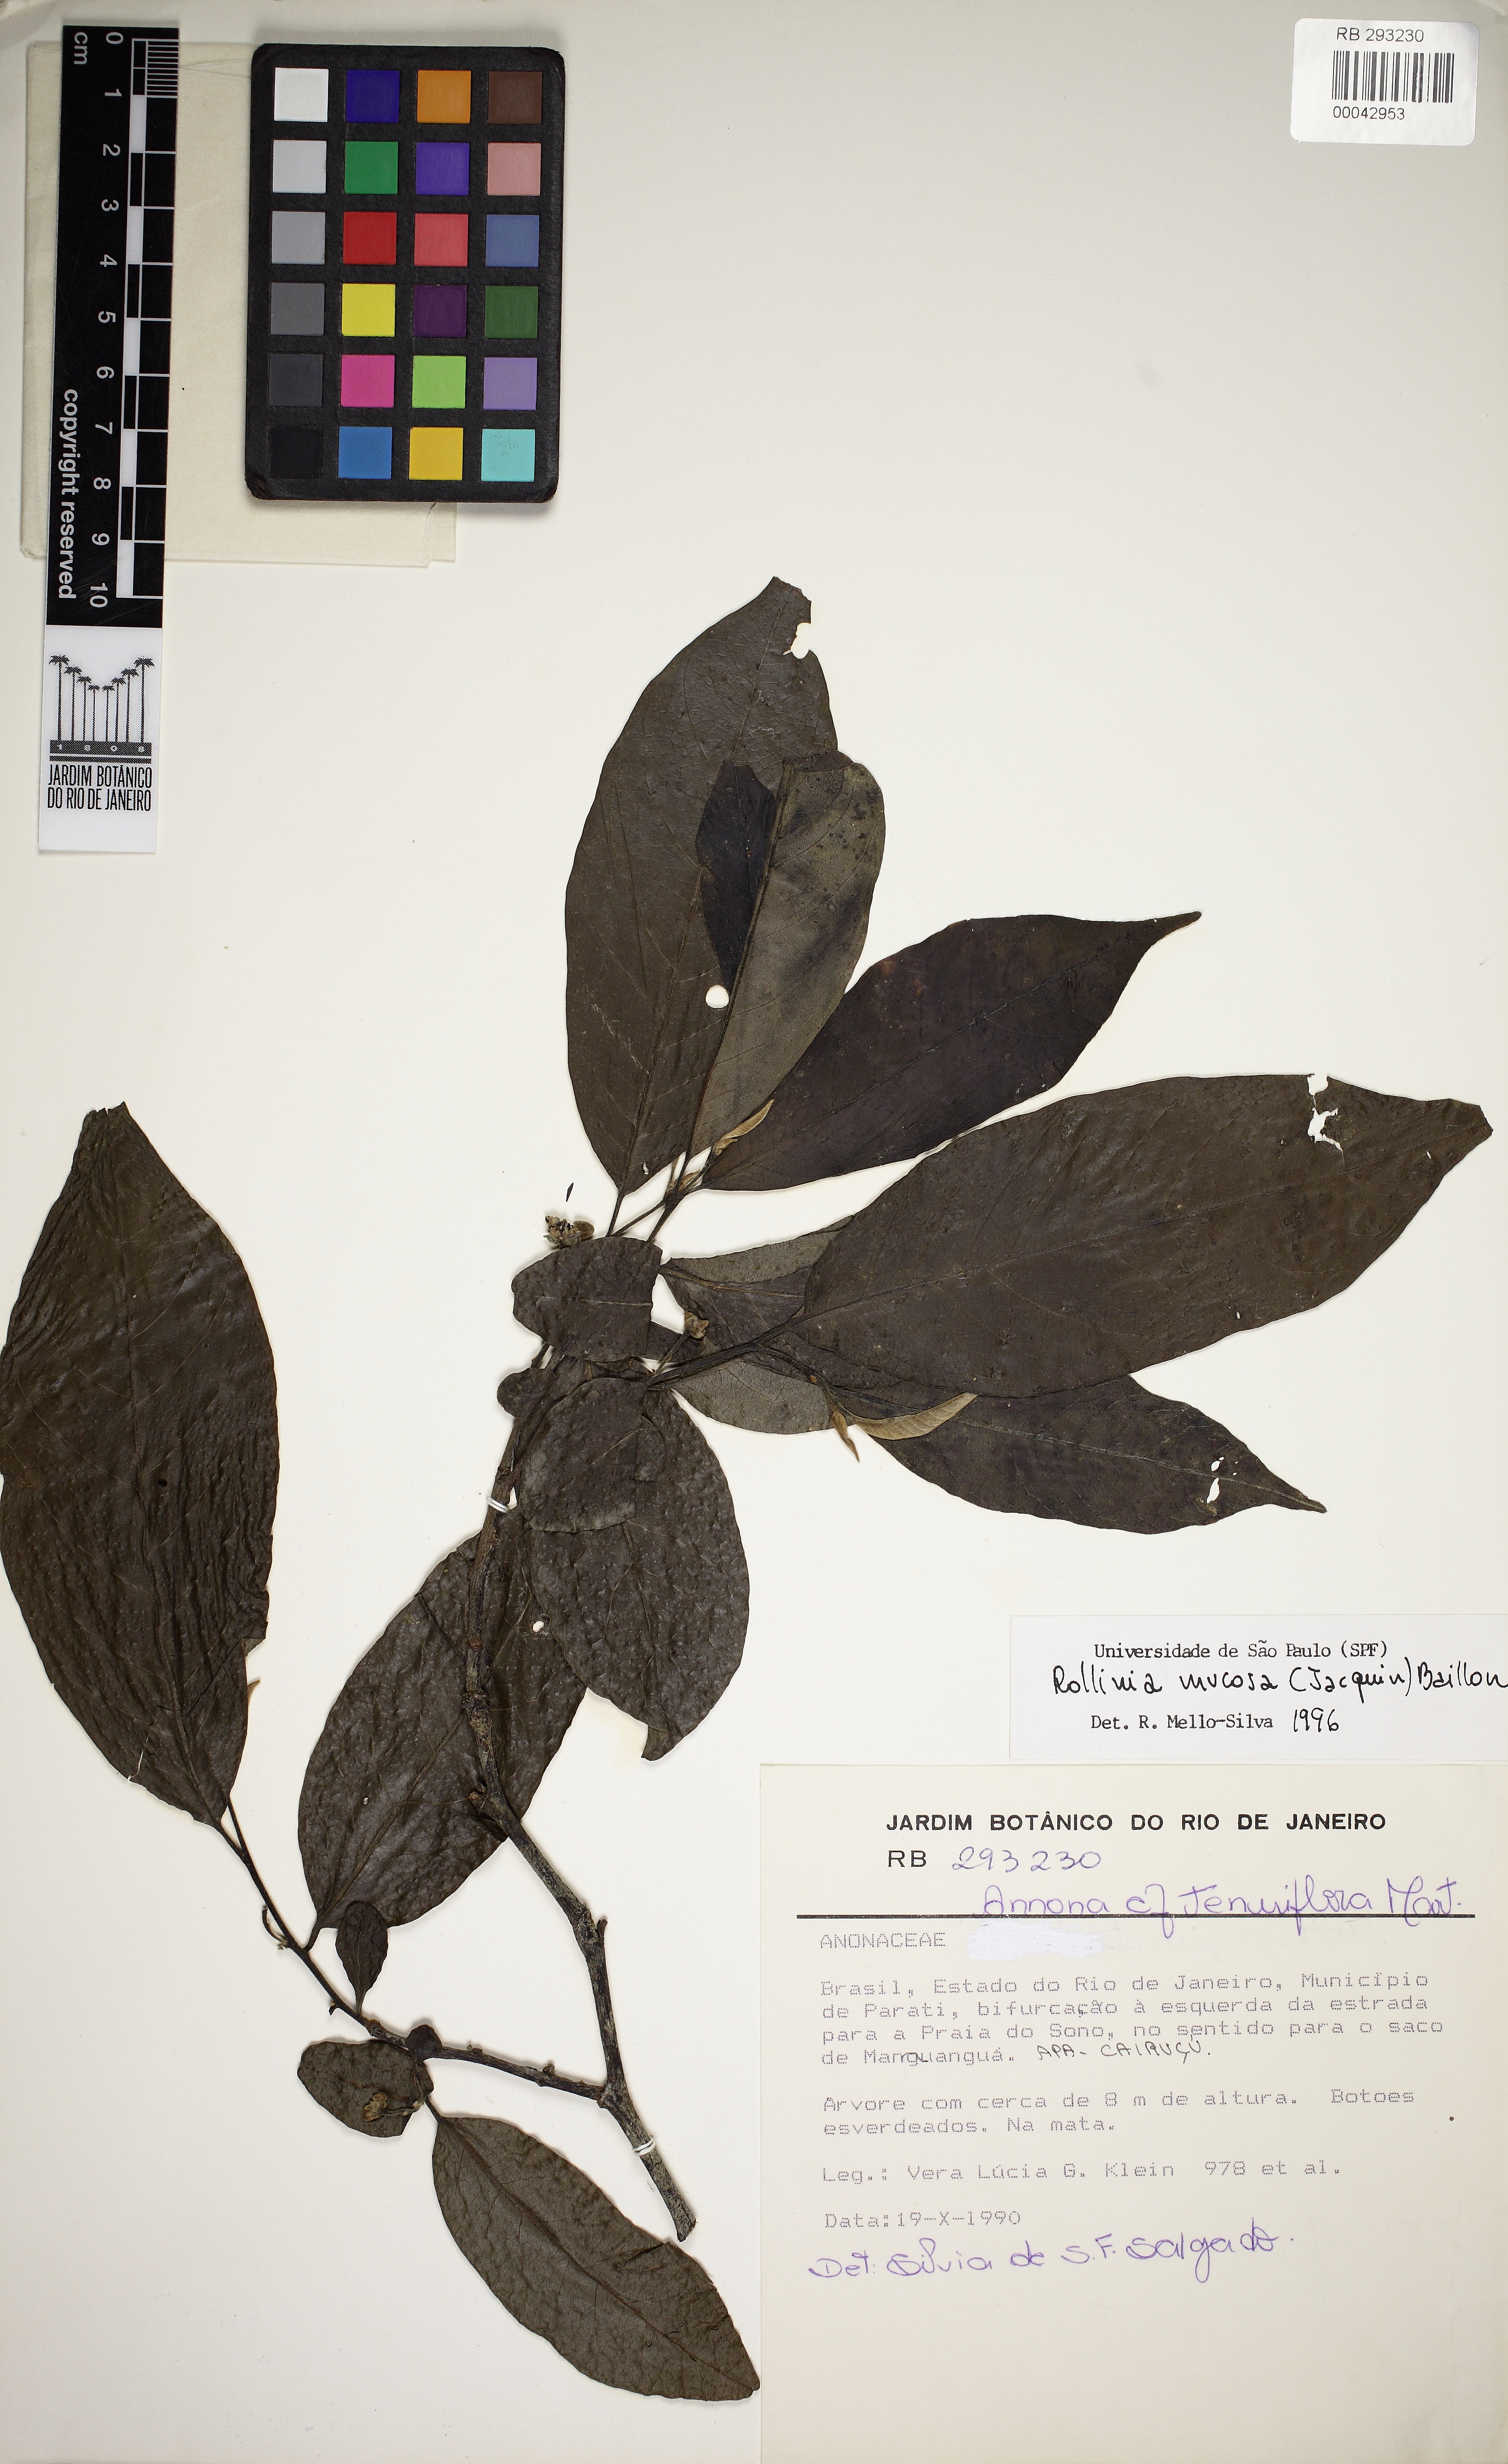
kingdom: Plantae
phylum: Tracheophyta
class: Magnoliopsida
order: Magnoliales
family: Annonaceae
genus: Annona
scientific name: Annona mucosa
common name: Sugar apple
